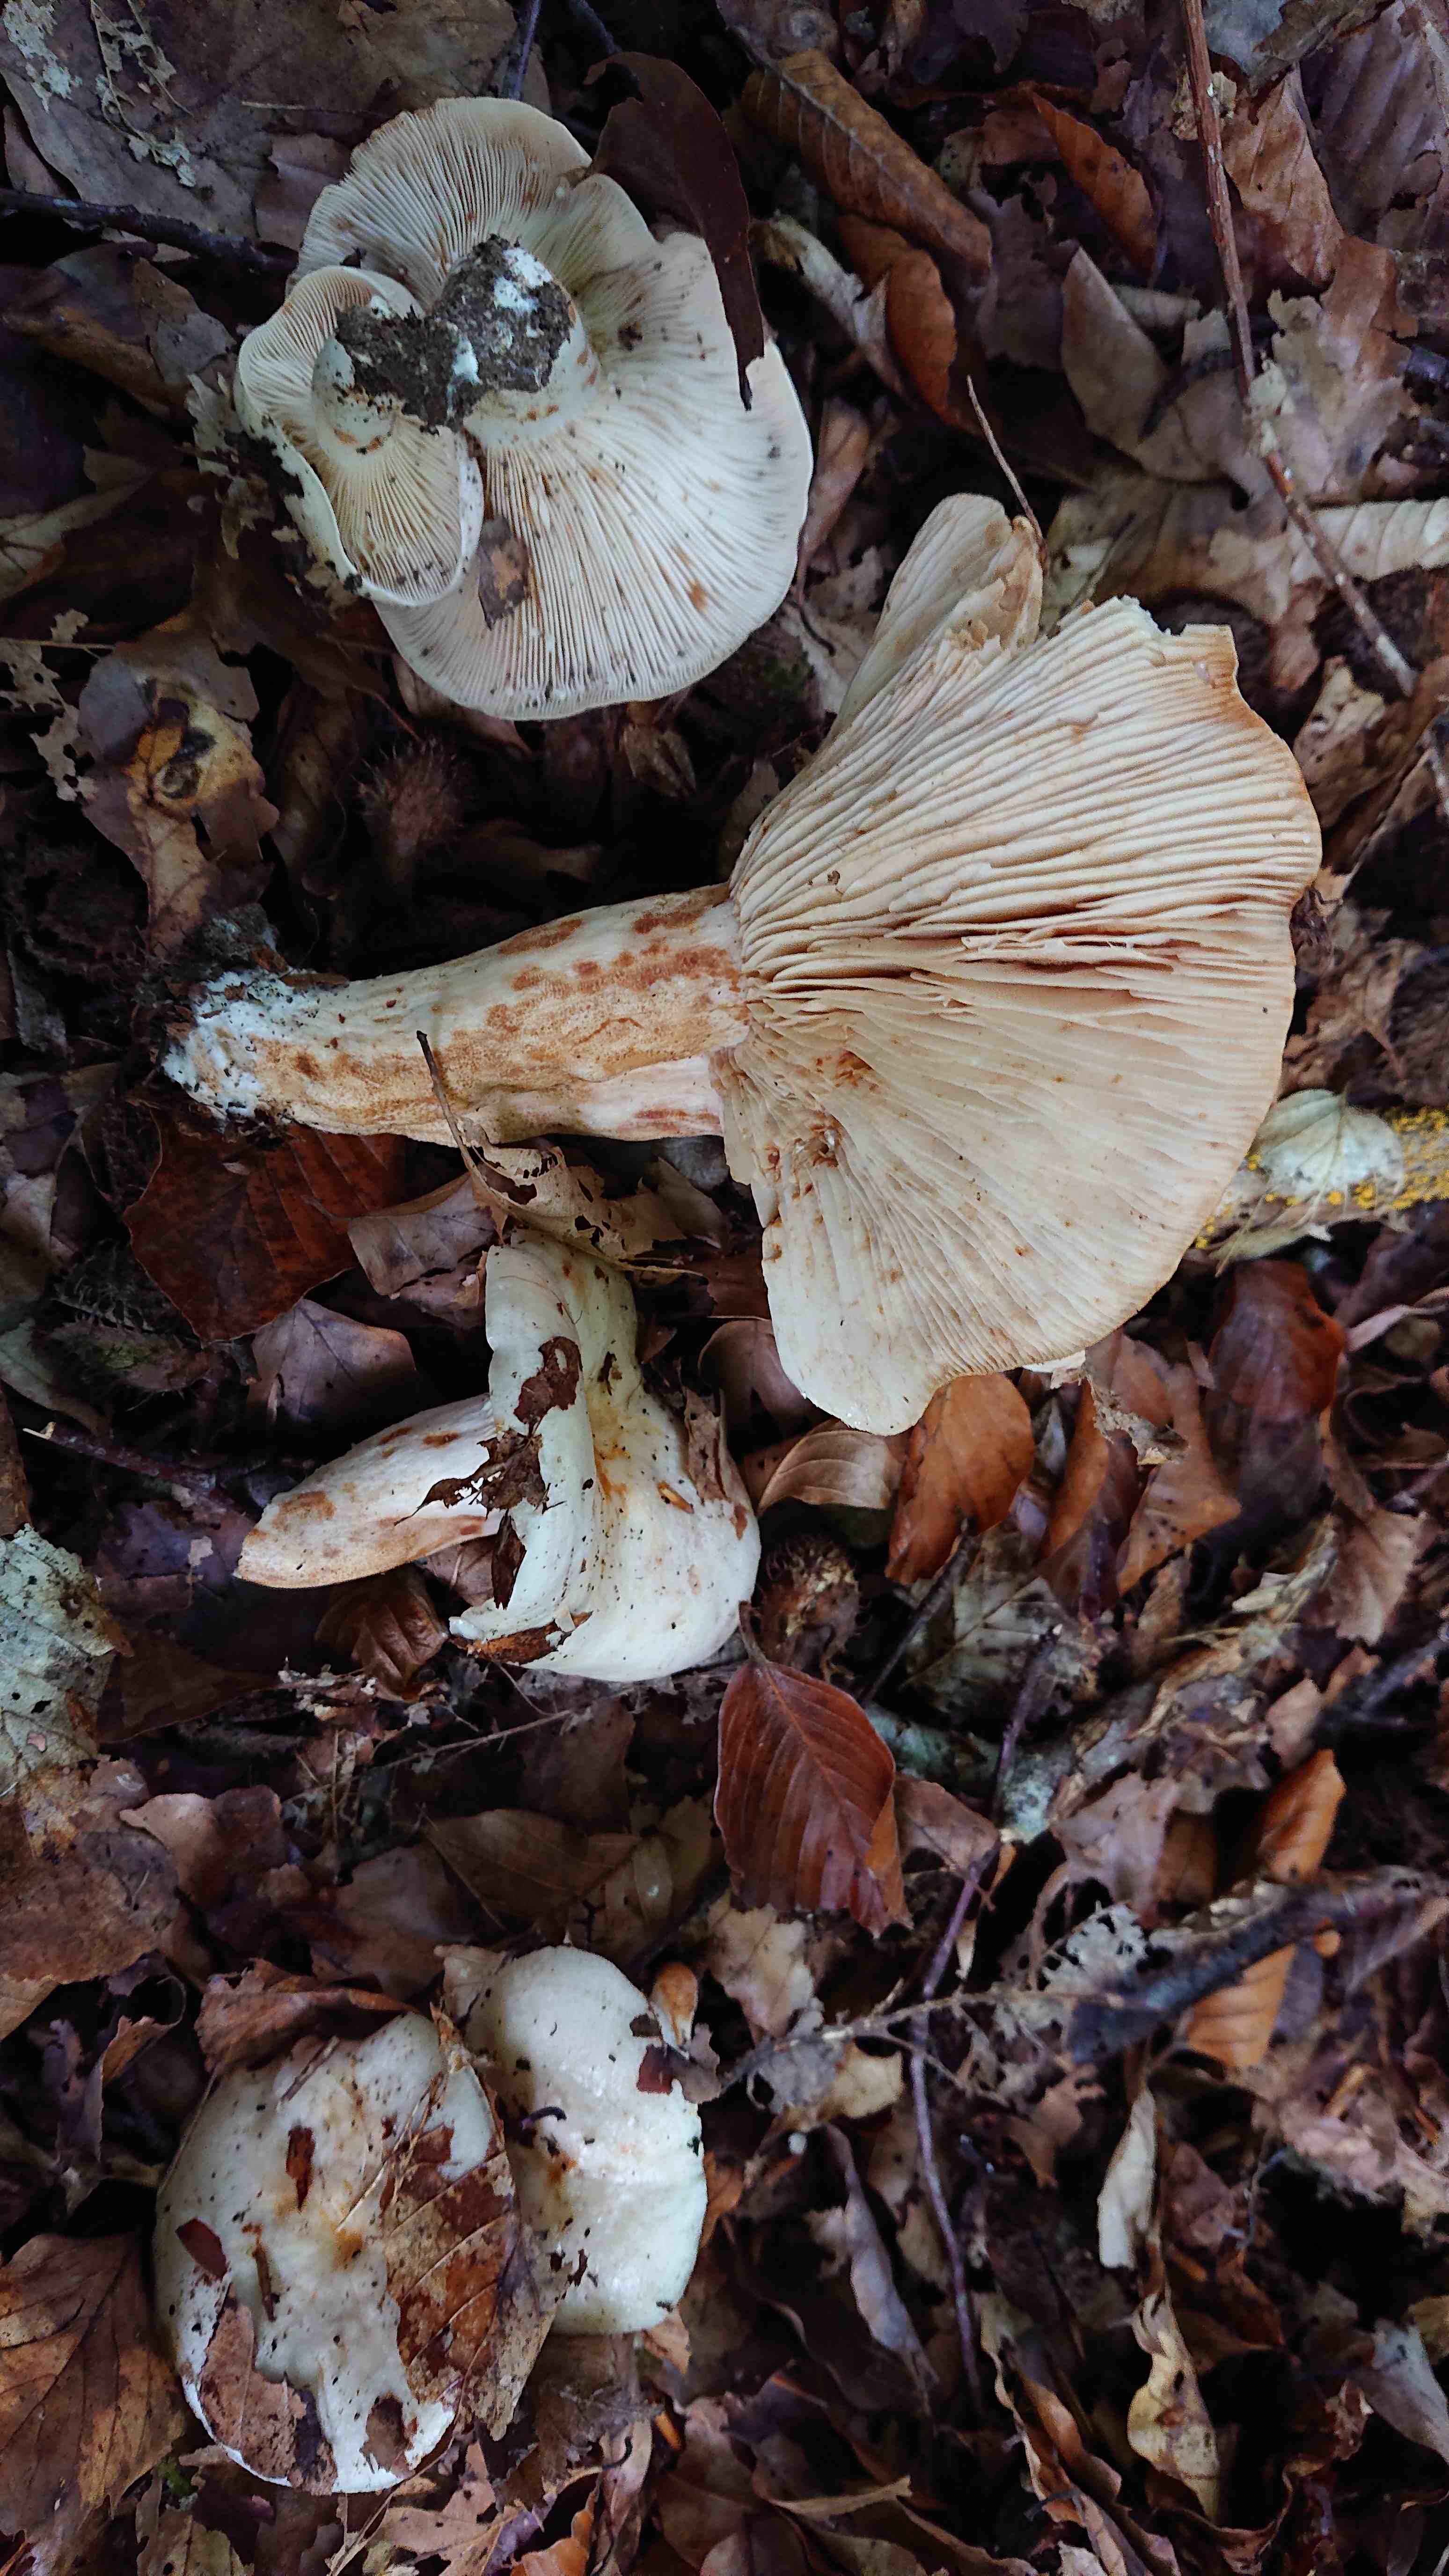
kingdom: Fungi
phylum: Basidiomycota
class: Agaricomycetes
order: Russulales
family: Russulaceae
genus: Lactarius
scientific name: Lactarius pallidus
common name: bleg mælkehat
